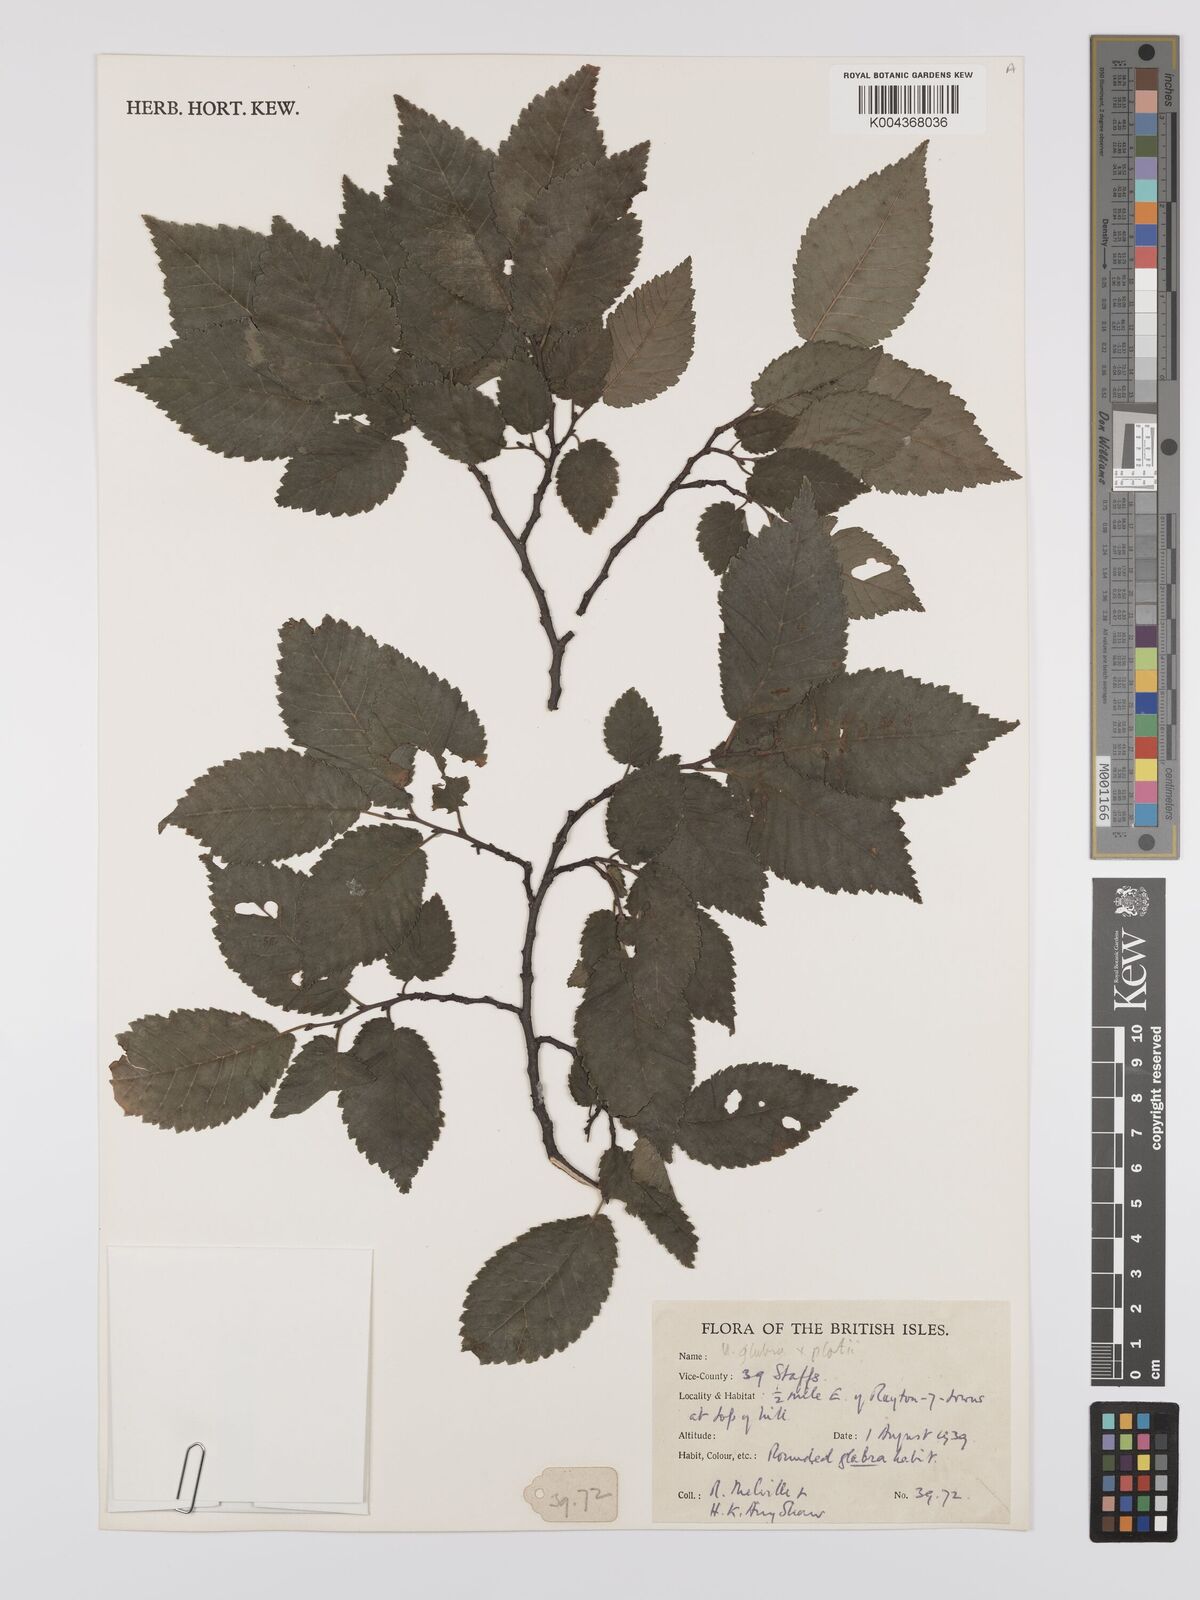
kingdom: Plantae
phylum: Tracheophyta
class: Magnoliopsida
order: Rosales
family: Ulmaceae
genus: Ulmus
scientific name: Ulmus
